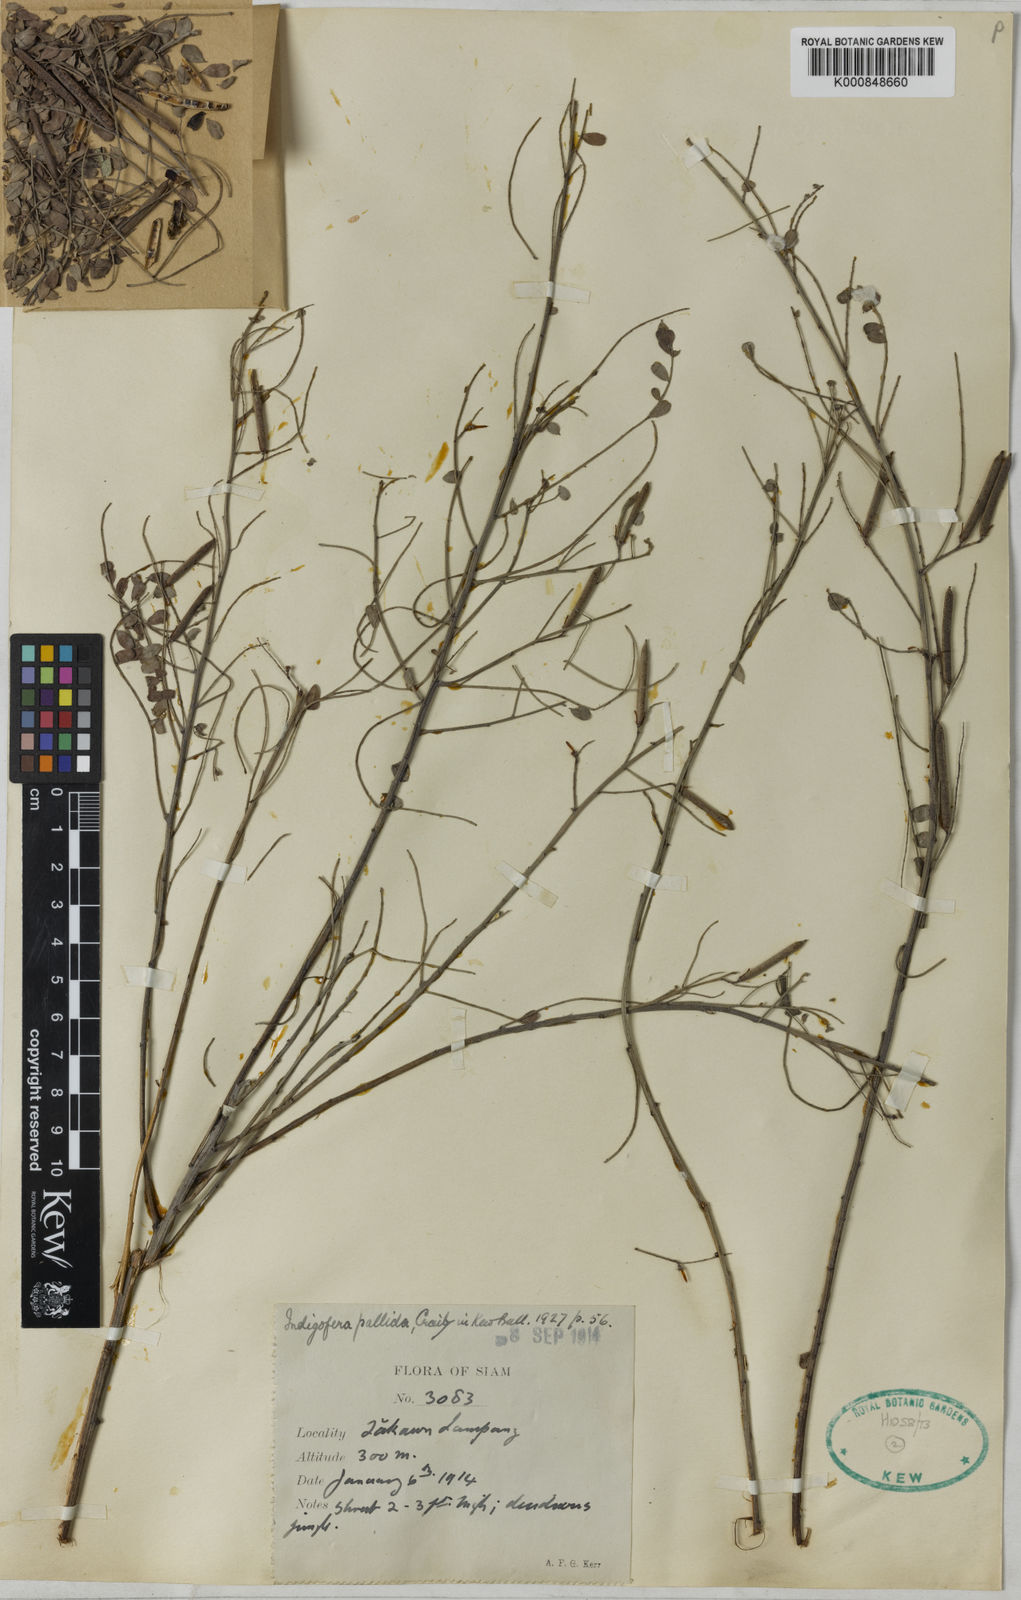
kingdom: Plantae
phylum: Tracheophyta
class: Magnoliopsida
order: Fabales
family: Fabaceae
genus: Indigofera
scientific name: Indigofera wightii
